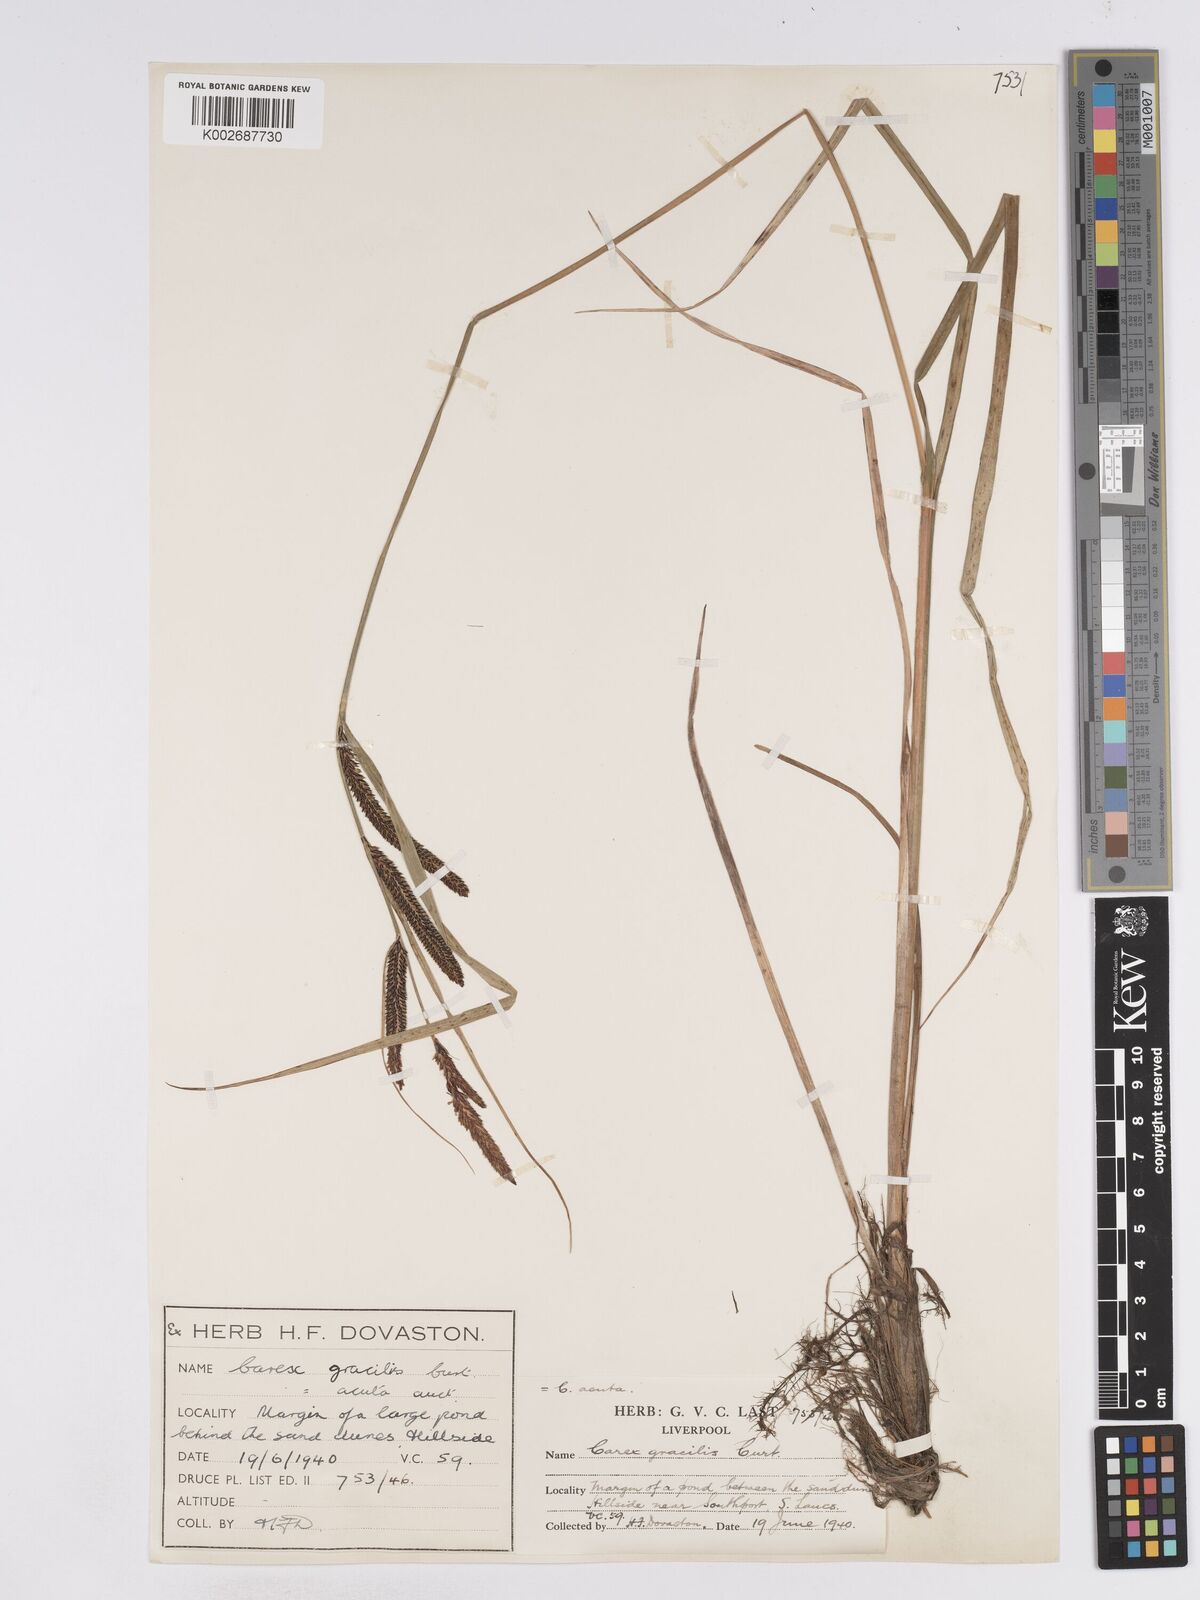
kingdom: Plantae
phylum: Tracheophyta
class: Liliopsida
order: Poales
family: Cyperaceae
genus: Carex
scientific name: Carex acuta
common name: Slender tufted-sedge
